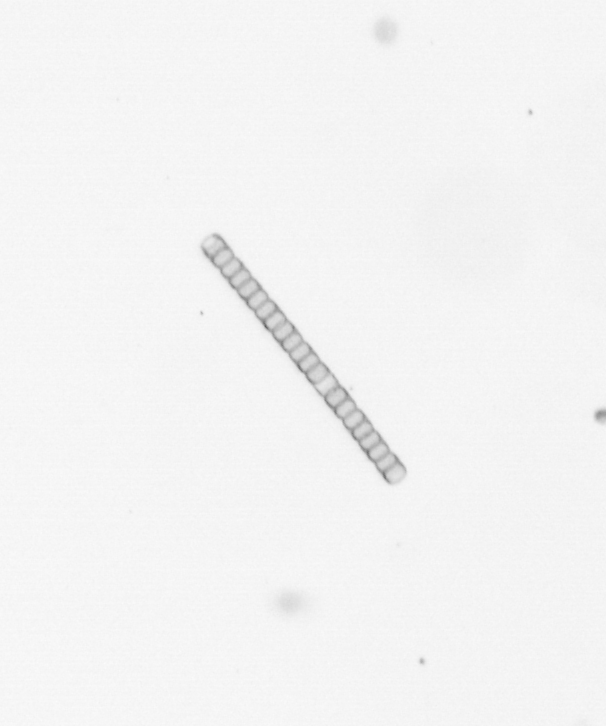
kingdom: Chromista
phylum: Ochrophyta
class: Bacillariophyceae
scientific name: Bacillariophyceae
